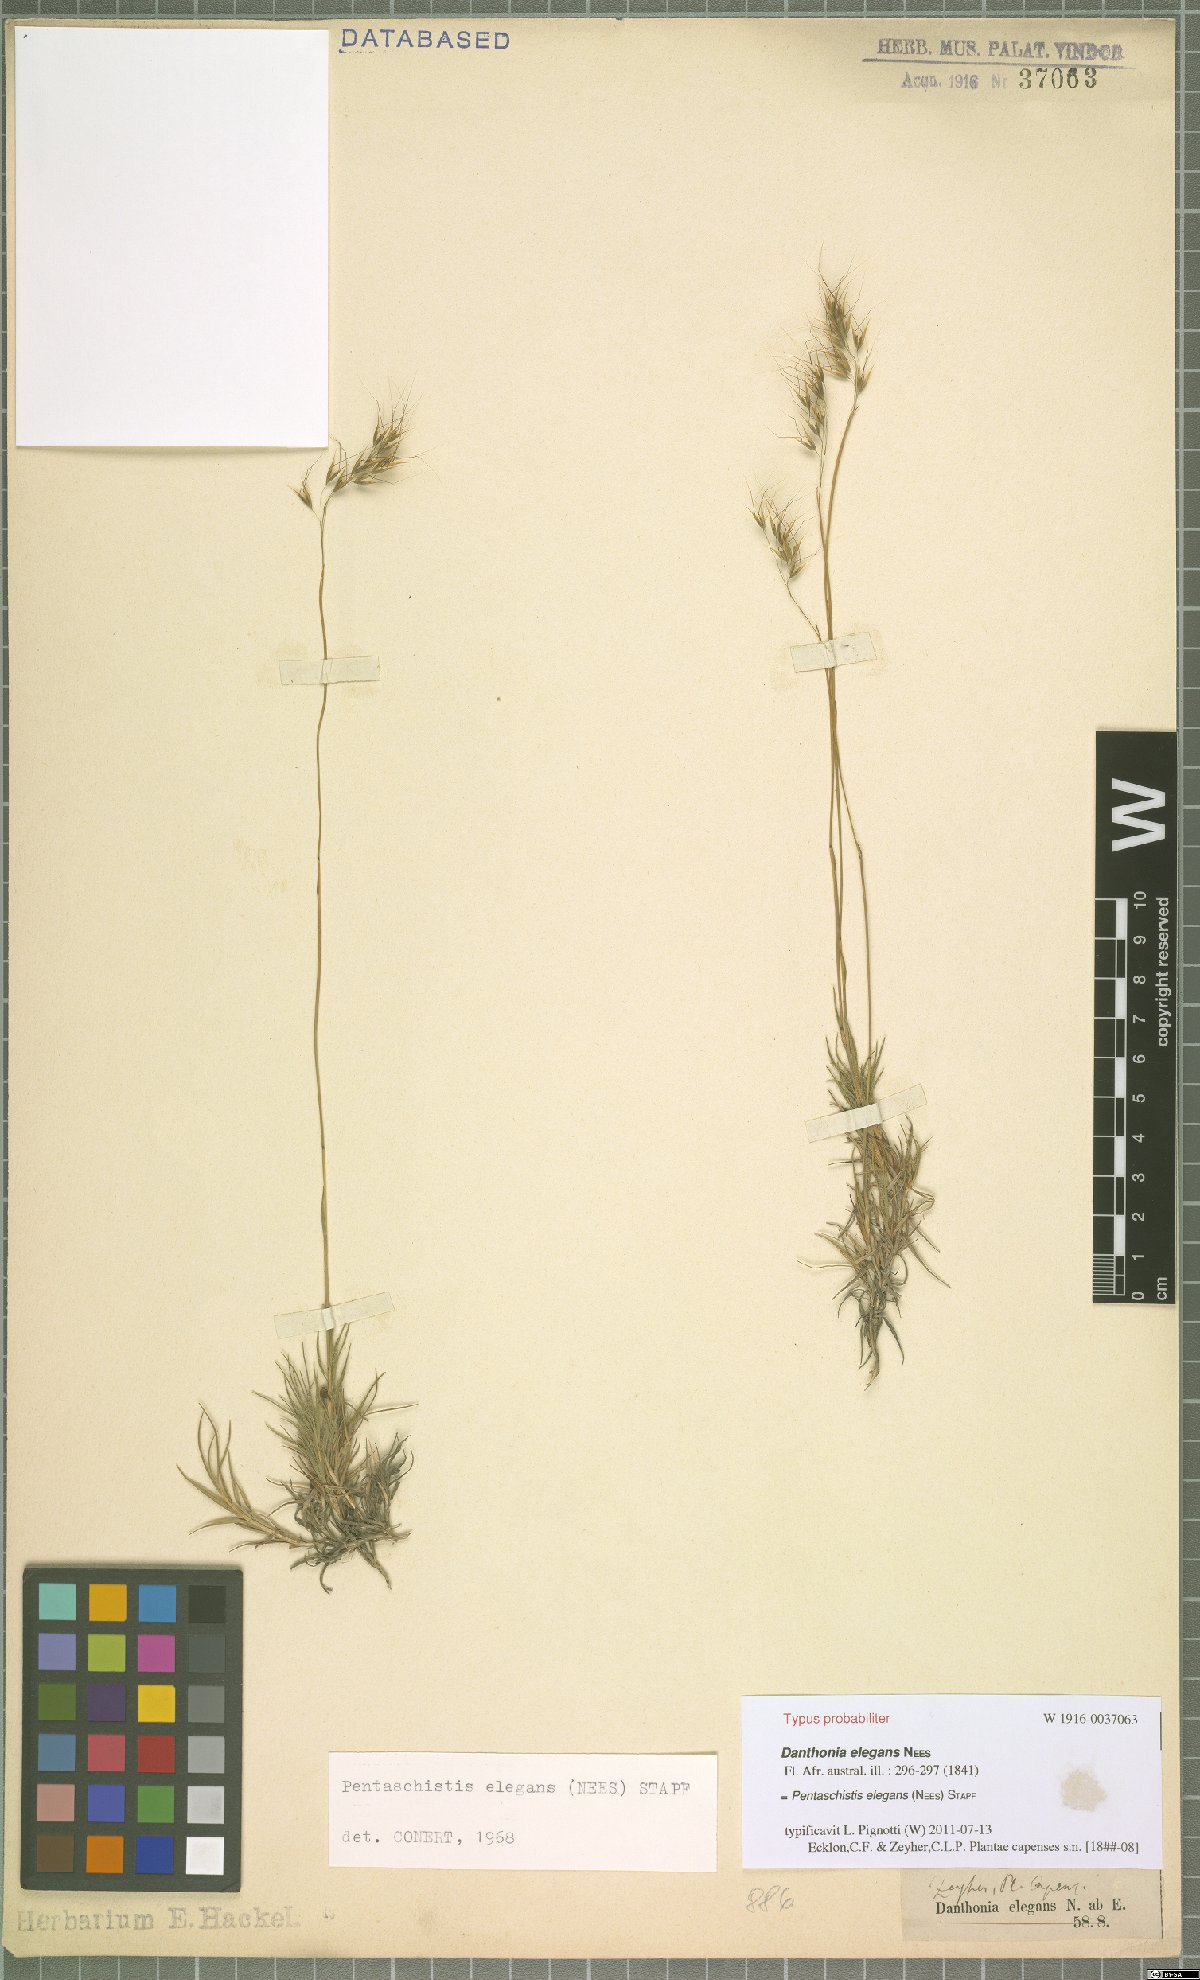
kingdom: Plantae
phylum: Tracheophyta
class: Liliopsida
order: Poales
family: Poaceae
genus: Pentameris
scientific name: Pentameris elegans
